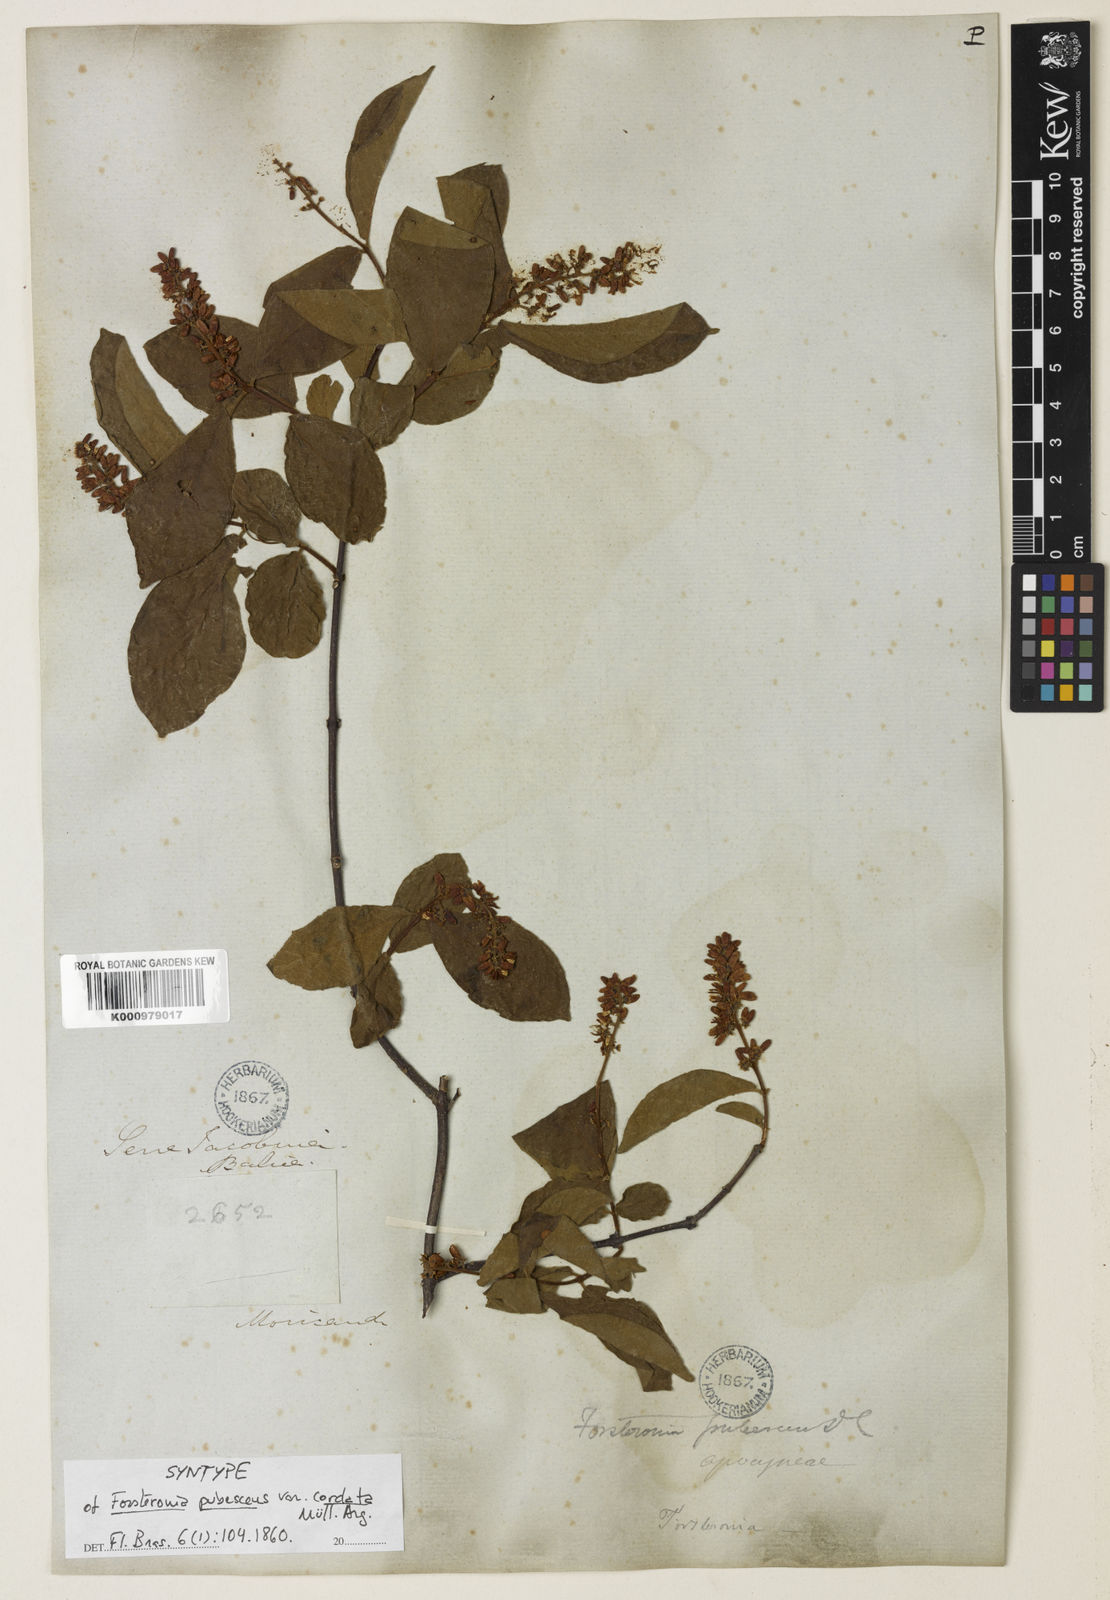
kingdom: Plantae
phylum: Tracheophyta
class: Magnoliopsida
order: Gentianales
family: Apocynaceae
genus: Forsteronia
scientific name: Forsteronia
